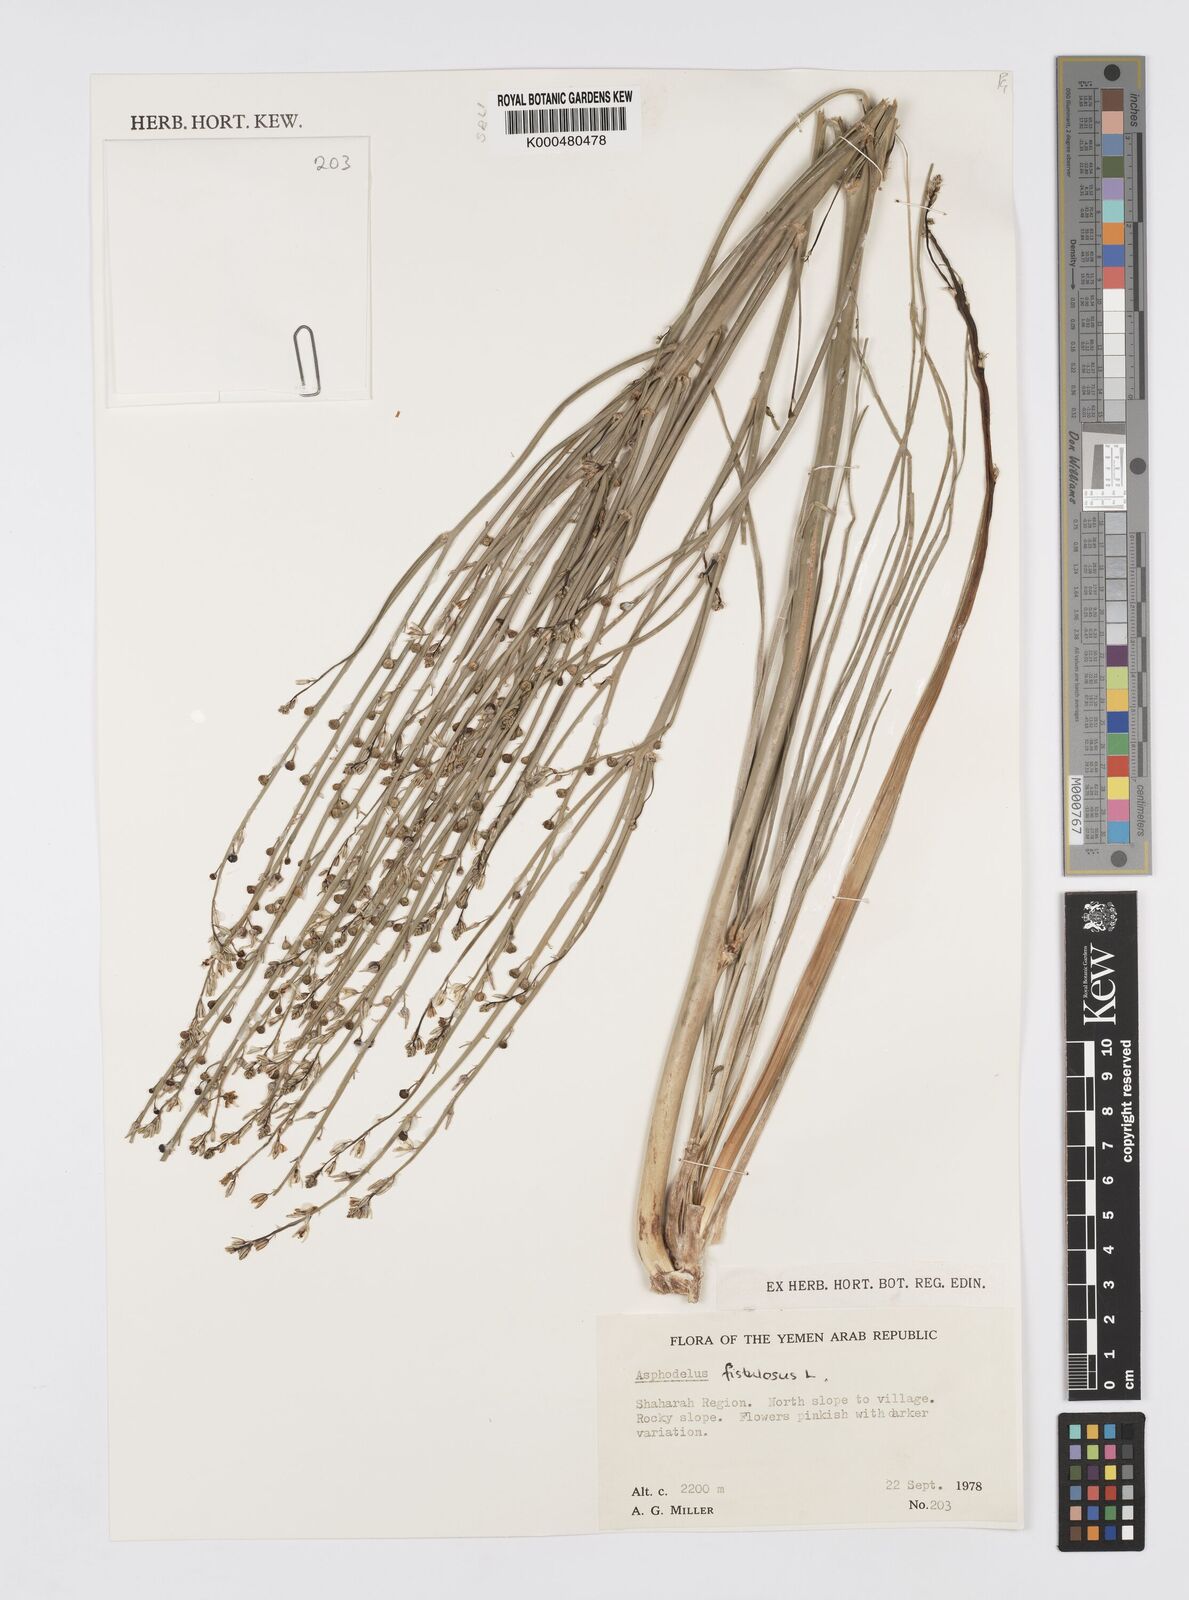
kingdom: Plantae
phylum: Tracheophyta
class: Liliopsida
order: Asparagales
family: Asphodelaceae
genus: Asphodelus
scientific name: Asphodelus fistulosus
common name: Onionweed
